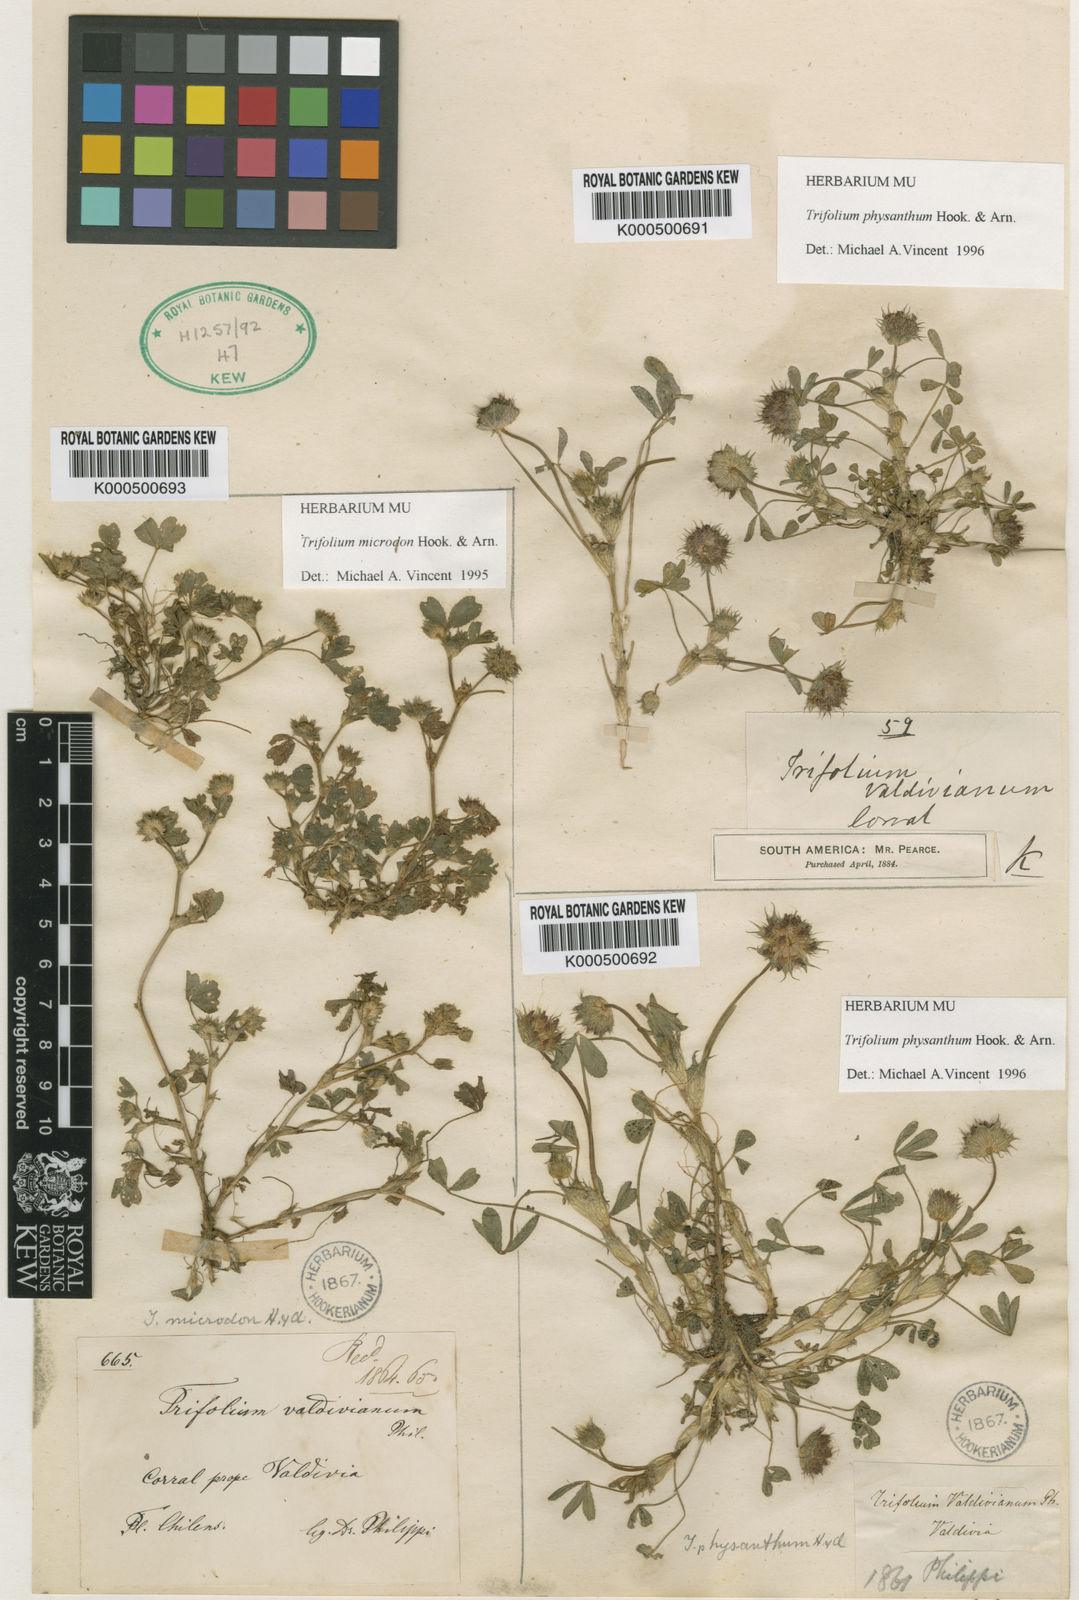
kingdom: Plantae
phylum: Tracheophyta
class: Magnoliopsida
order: Fabales
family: Fabaceae
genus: Trifolium
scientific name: Trifolium microdon
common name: Thimble clover
